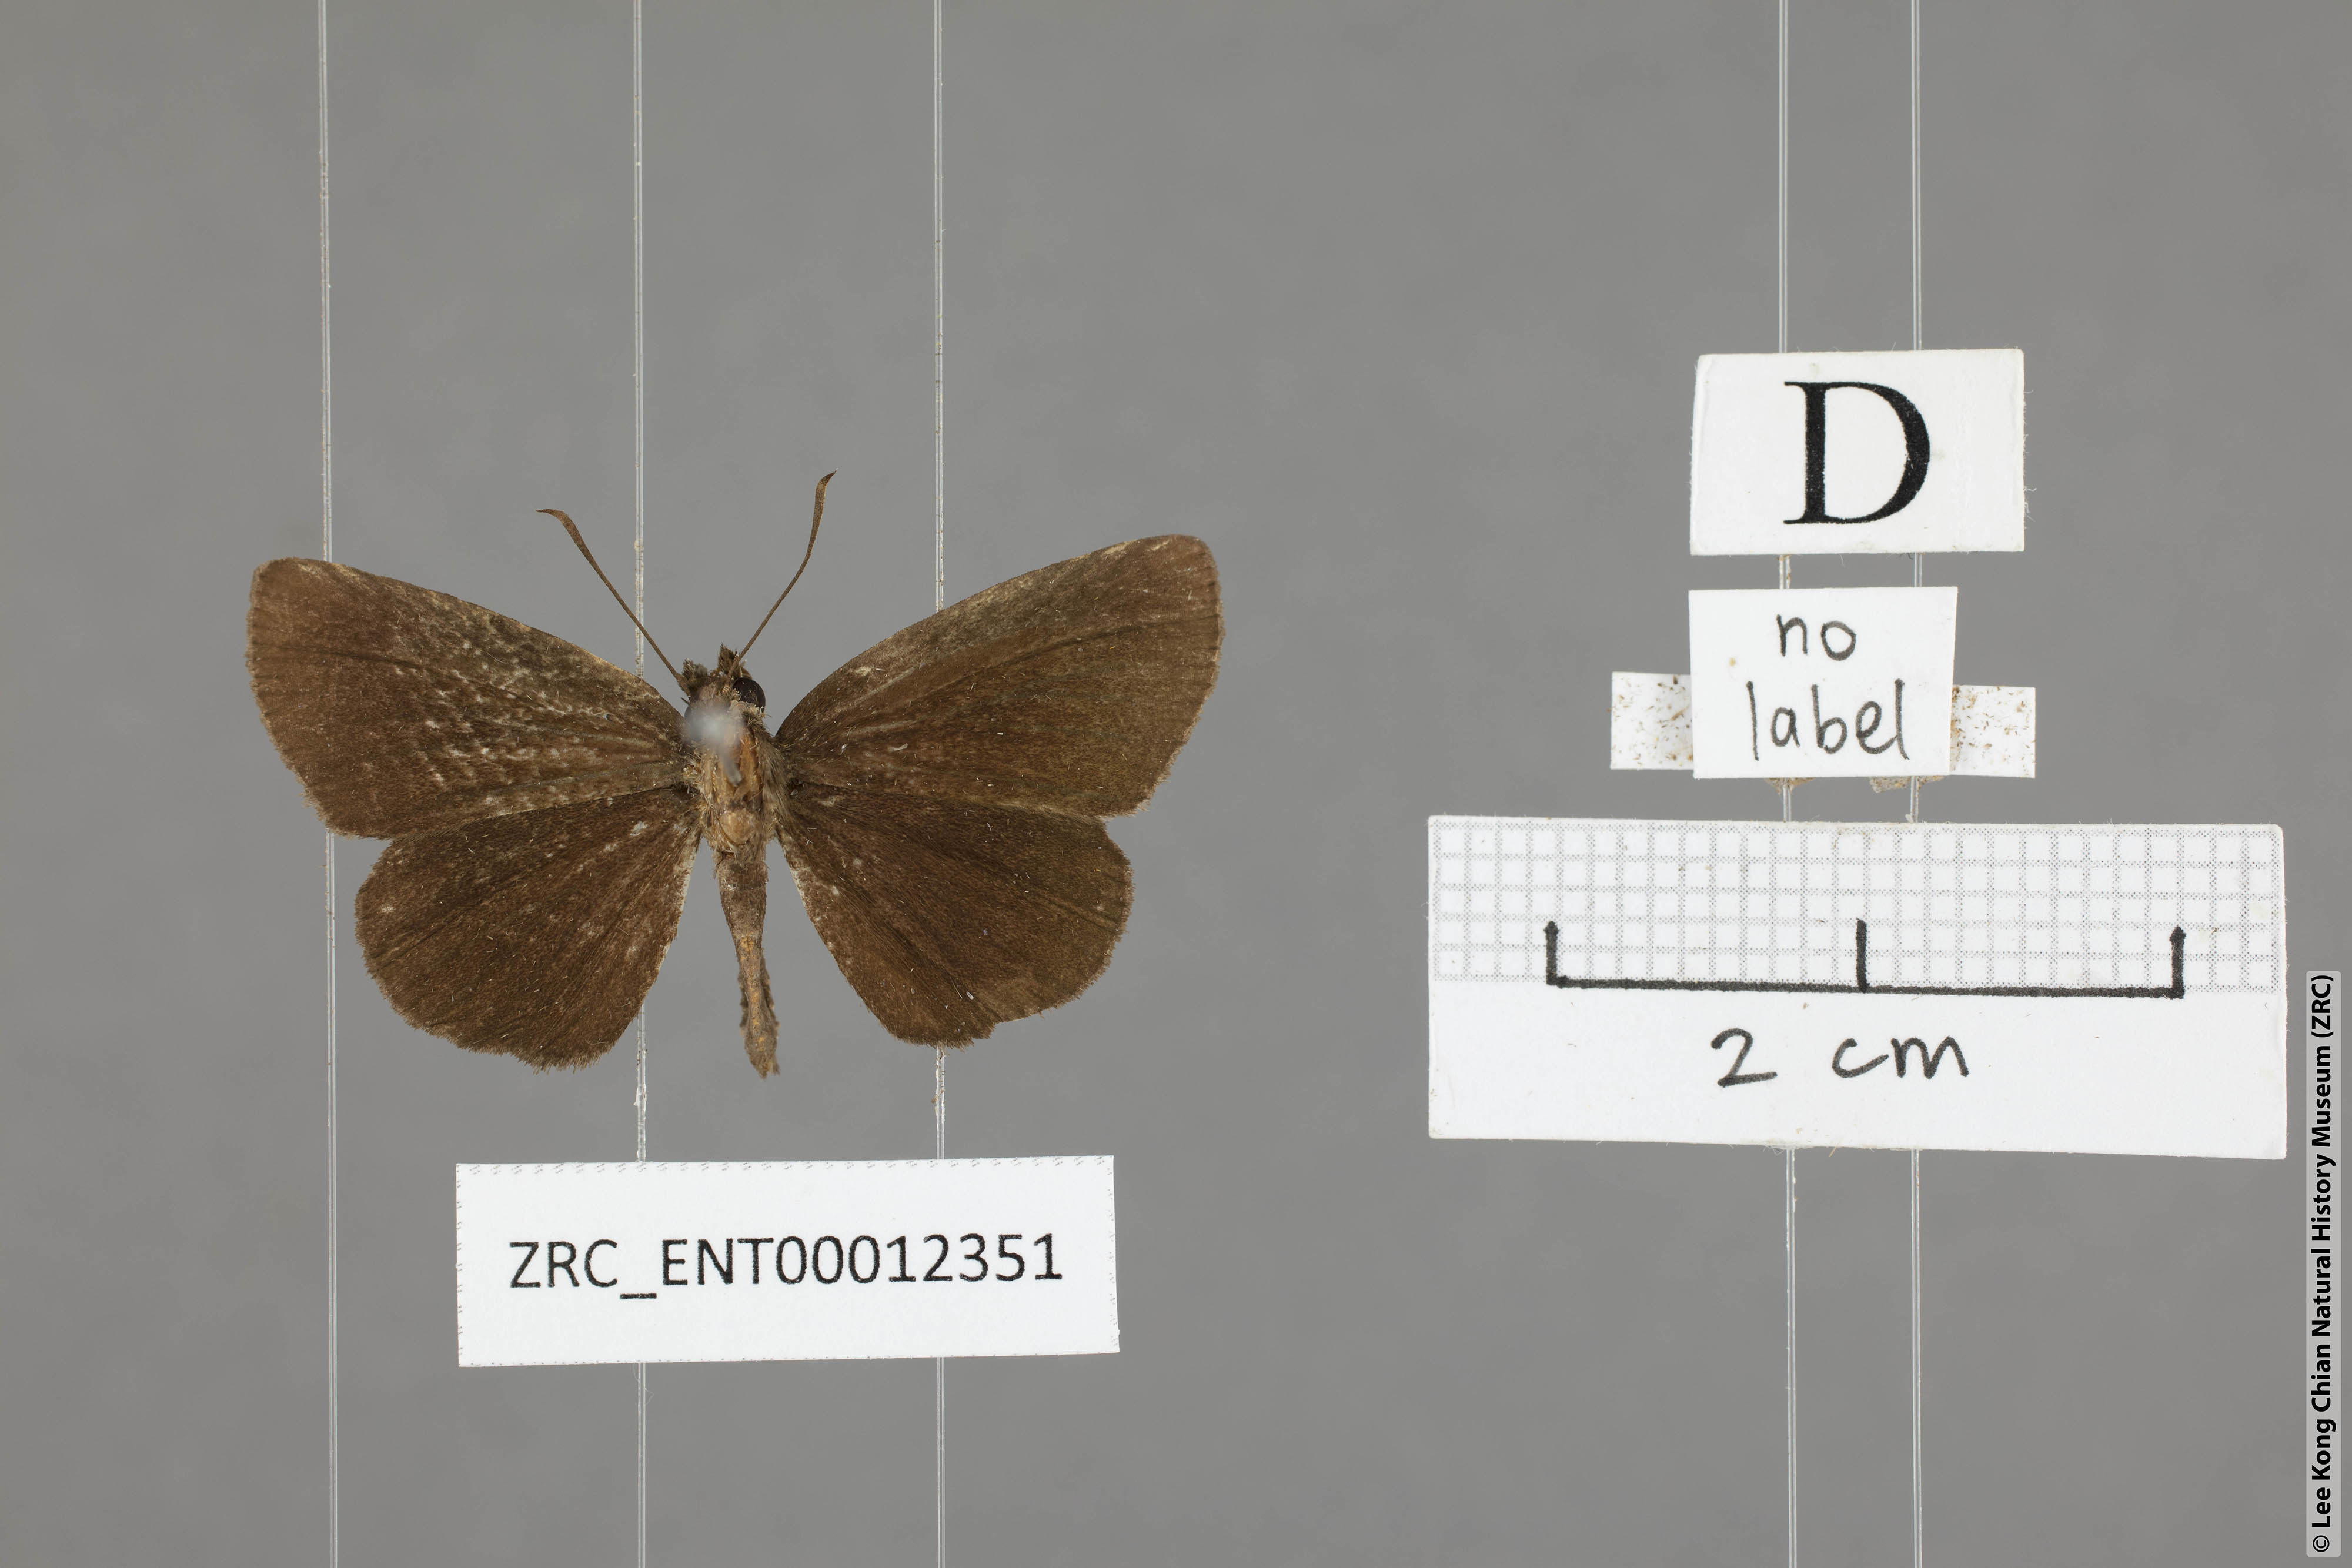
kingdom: Animalia
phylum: Arthropoda
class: Insecta
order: Lepidoptera
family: Hesperiidae
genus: Astictopterus
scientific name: Astictopterus jama
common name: Forest hopper
